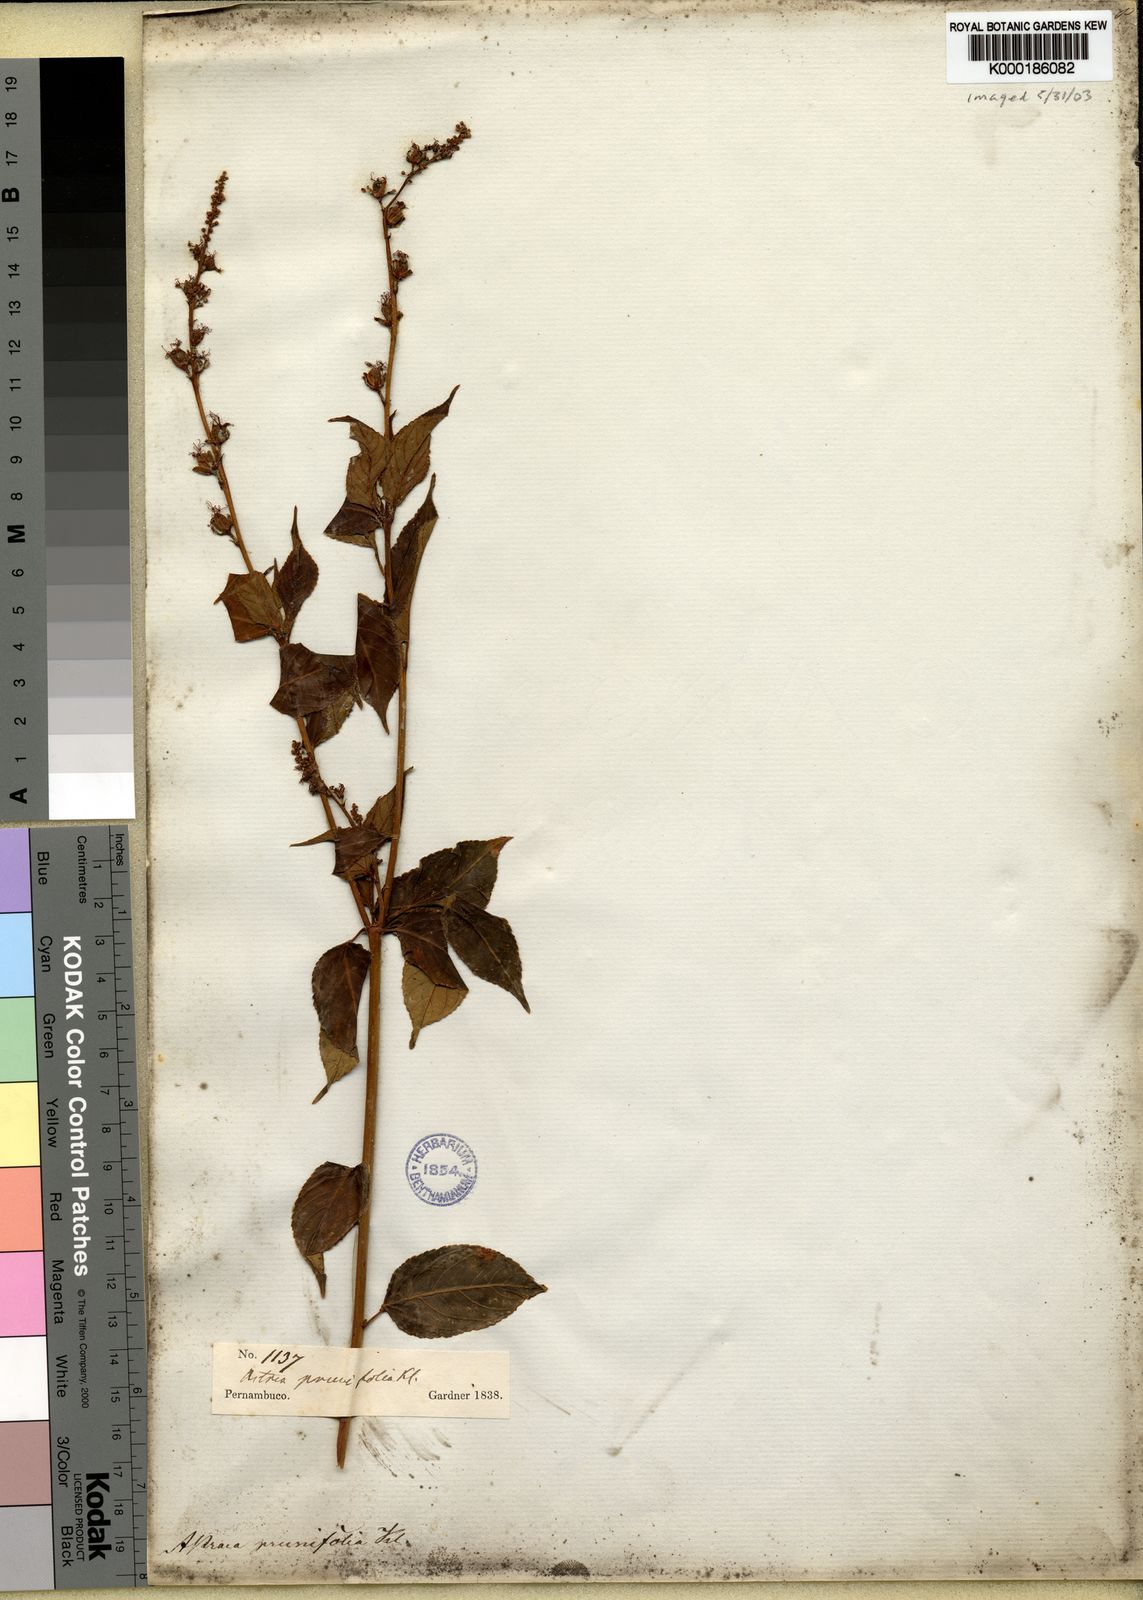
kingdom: Plantae
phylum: Tracheophyta
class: Magnoliopsida
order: Malpighiales
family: Euphorbiaceae
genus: Croton
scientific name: Croton
